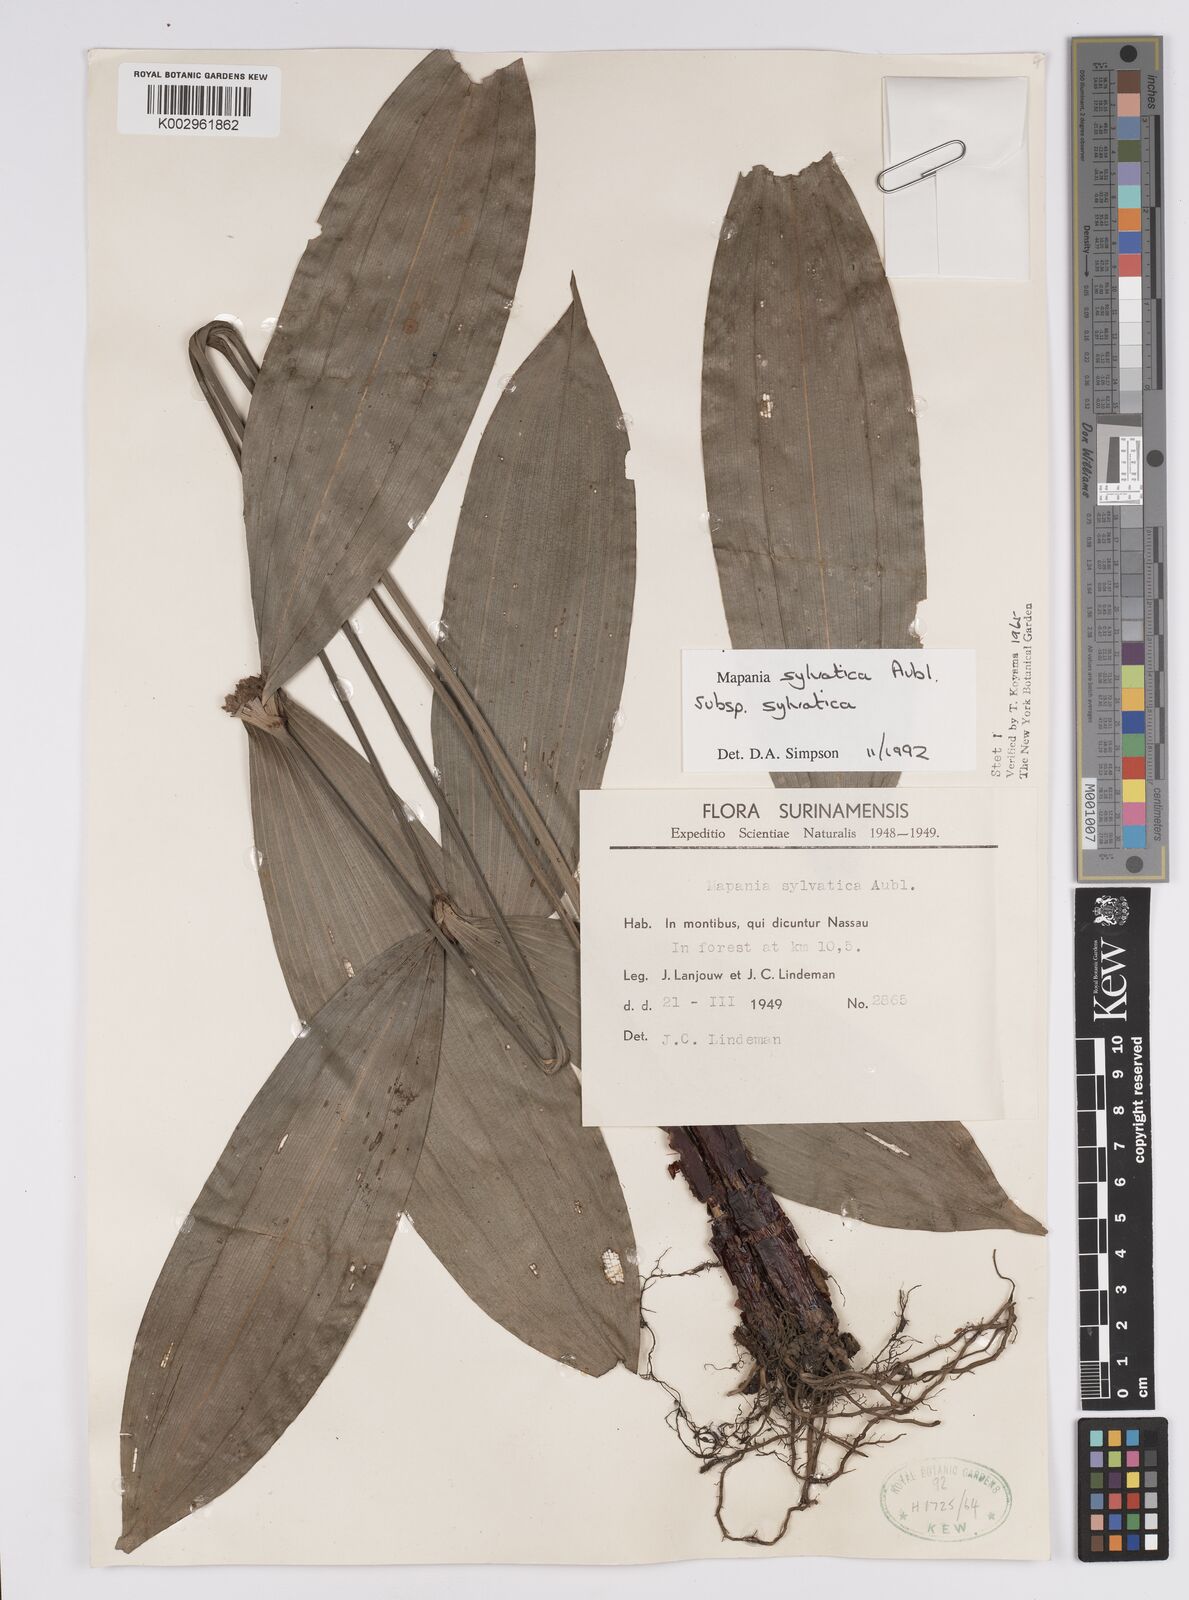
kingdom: Plantae
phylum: Tracheophyta
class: Liliopsida
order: Poales
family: Cyperaceae
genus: Mapania
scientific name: Mapania sylvatica
